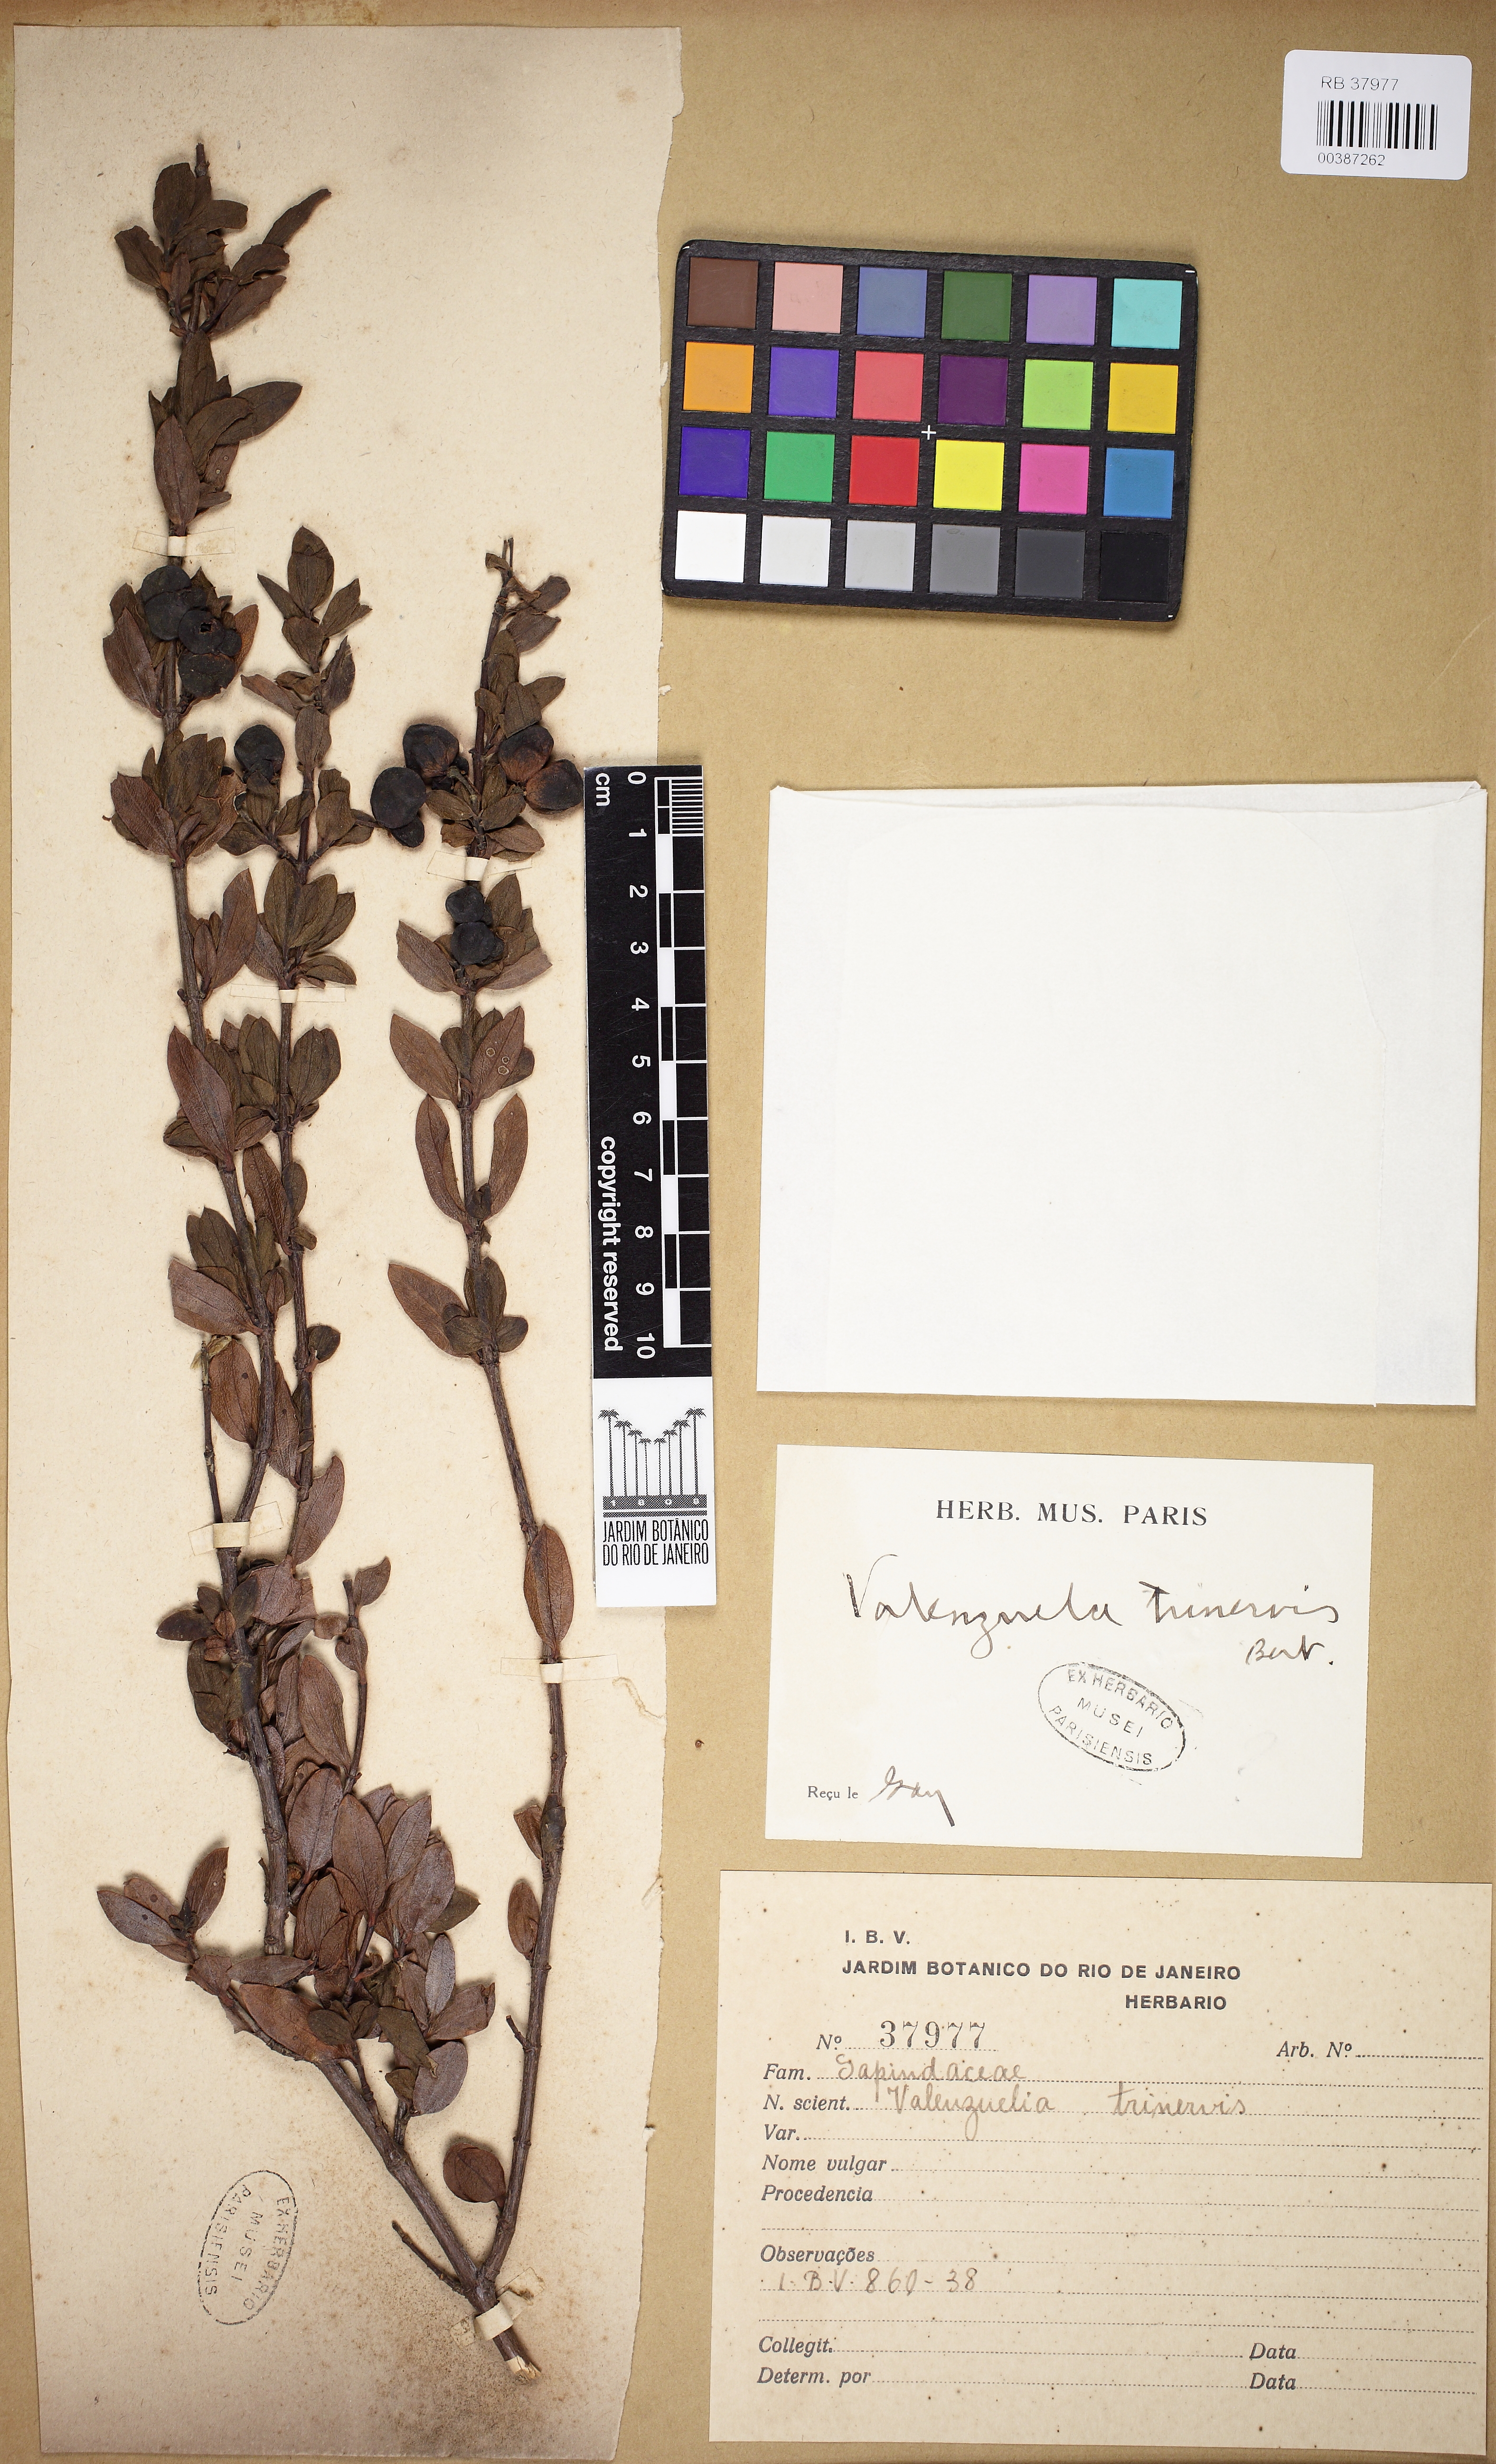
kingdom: Plantae
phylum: Tracheophyta
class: Magnoliopsida
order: Sapindales
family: Sapindaceae
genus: Guindilia
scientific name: Guindilia trinervis
